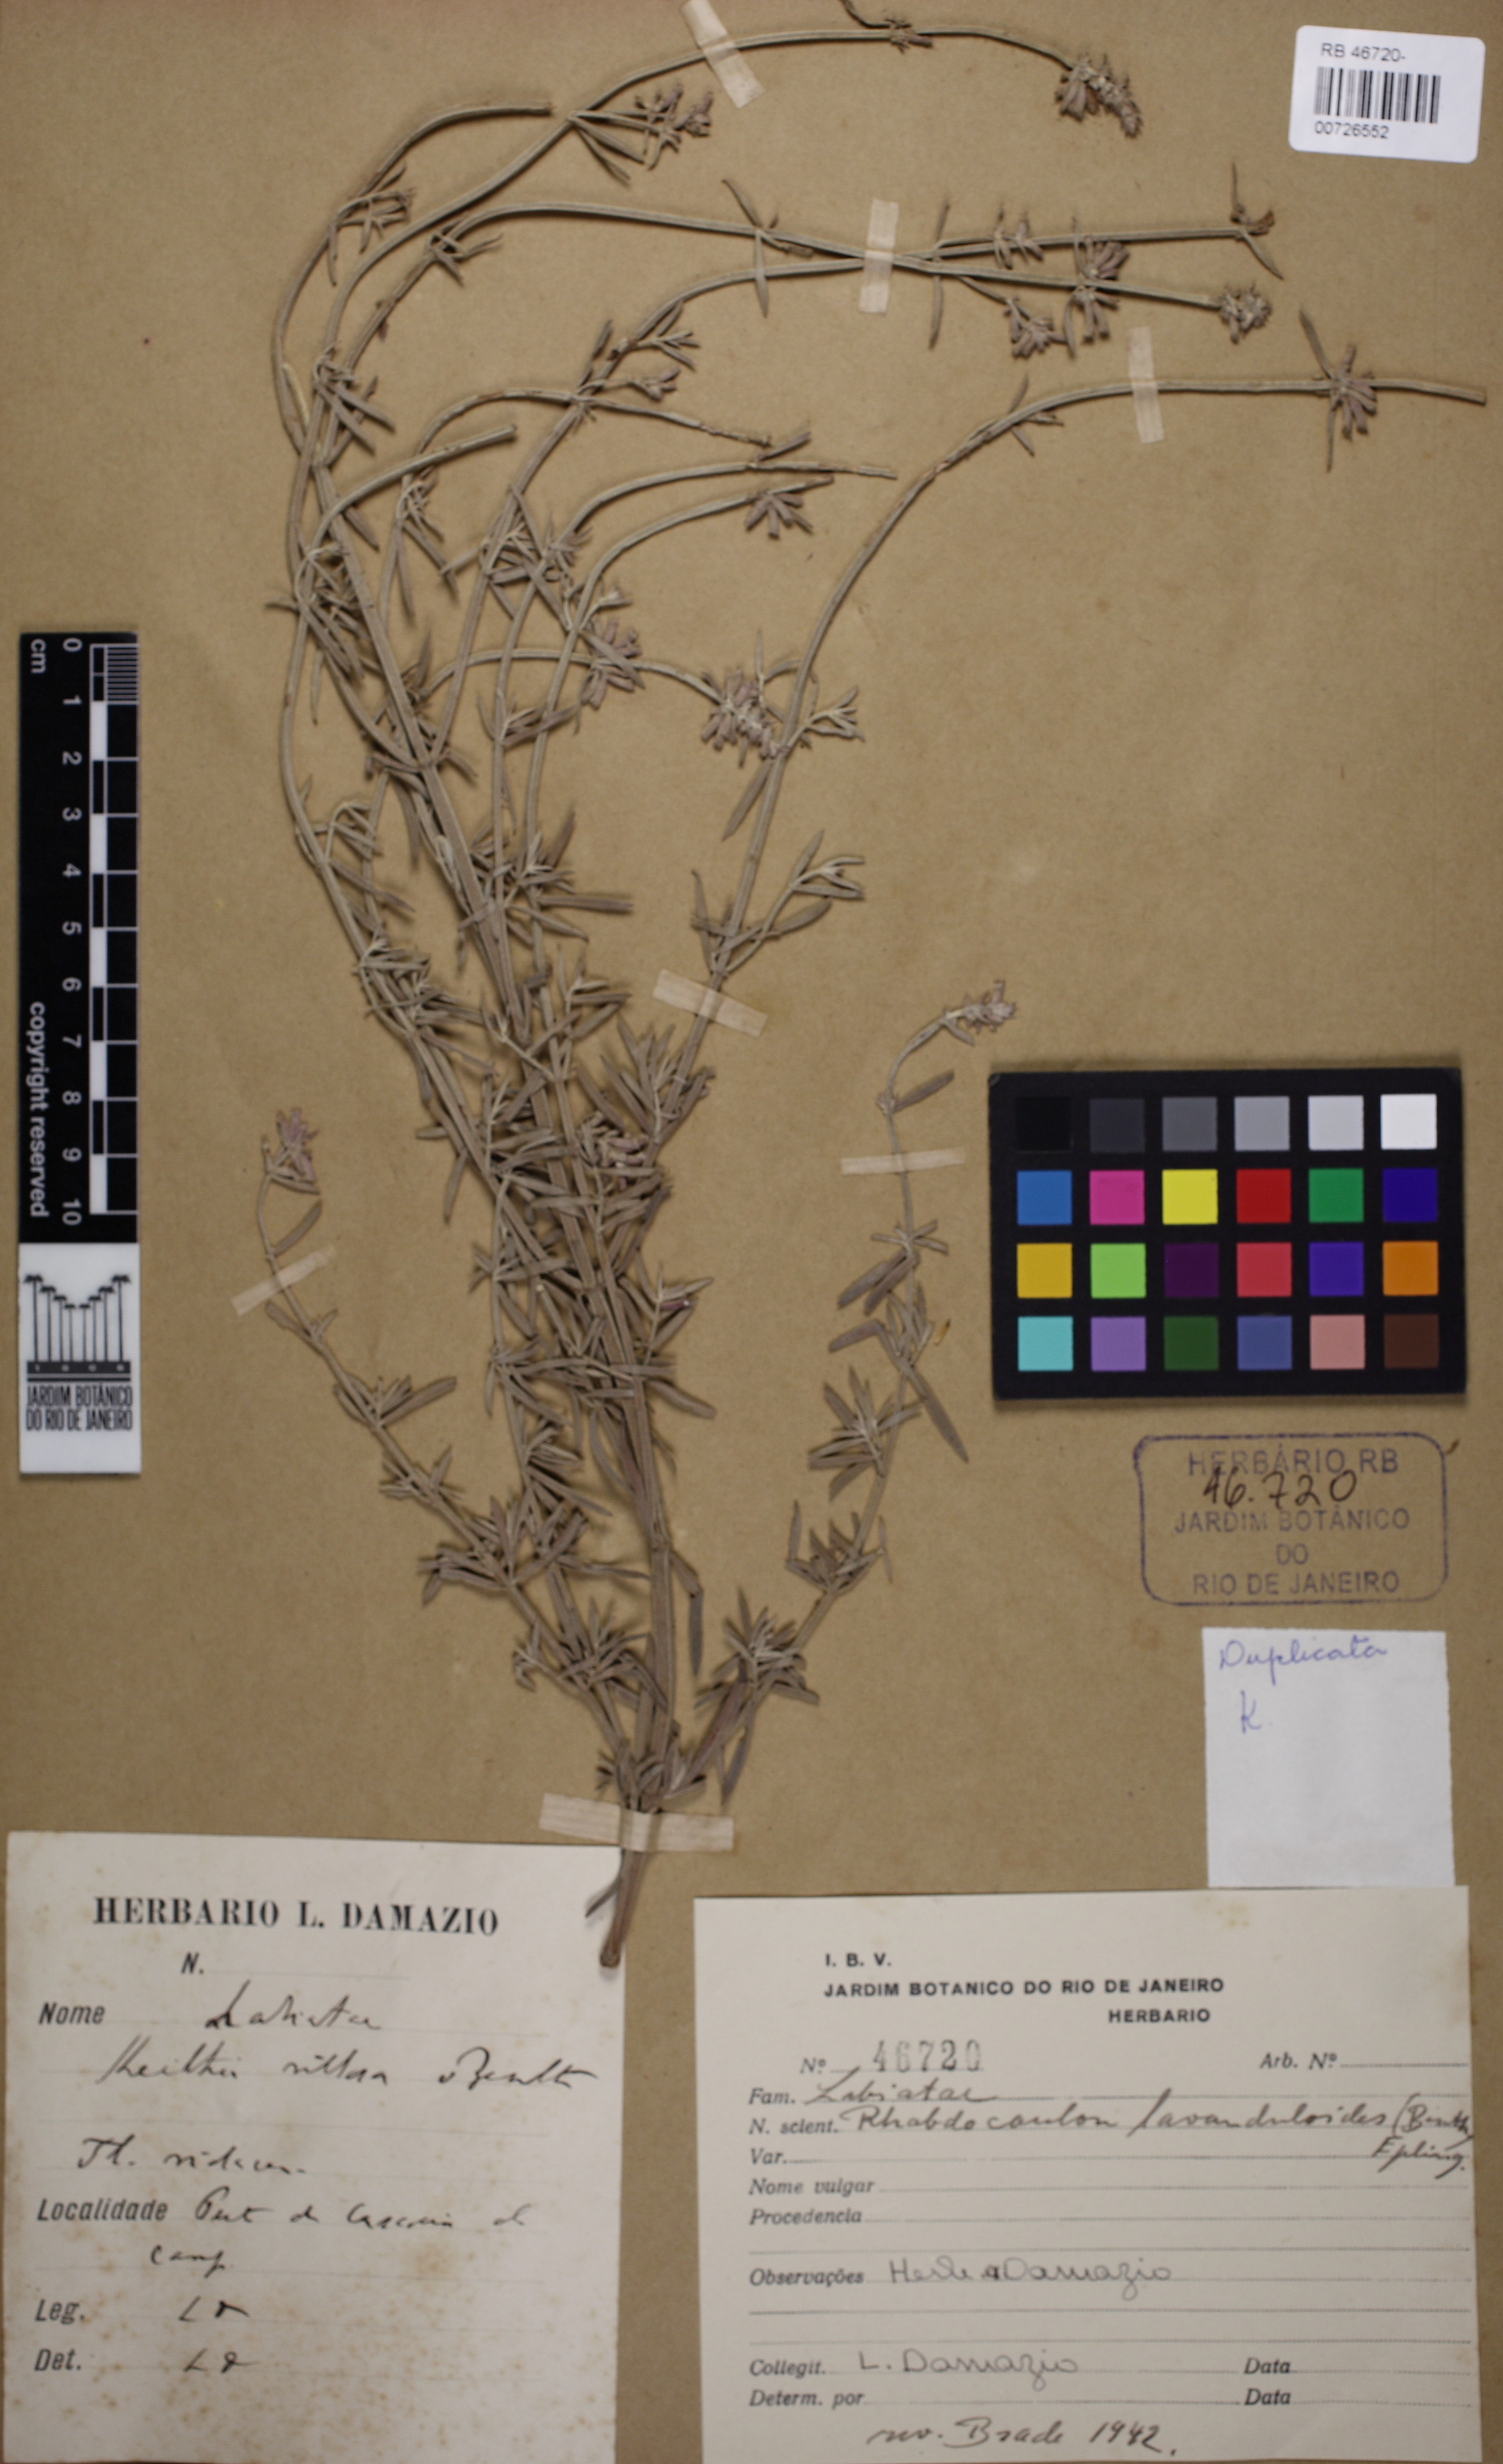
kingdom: Plantae
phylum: Tracheophyta
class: Magnoliopsida
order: Lamiales
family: Lamiaceae
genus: Rhabdocaulon
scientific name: Rhabdocaulon lavanduloides
